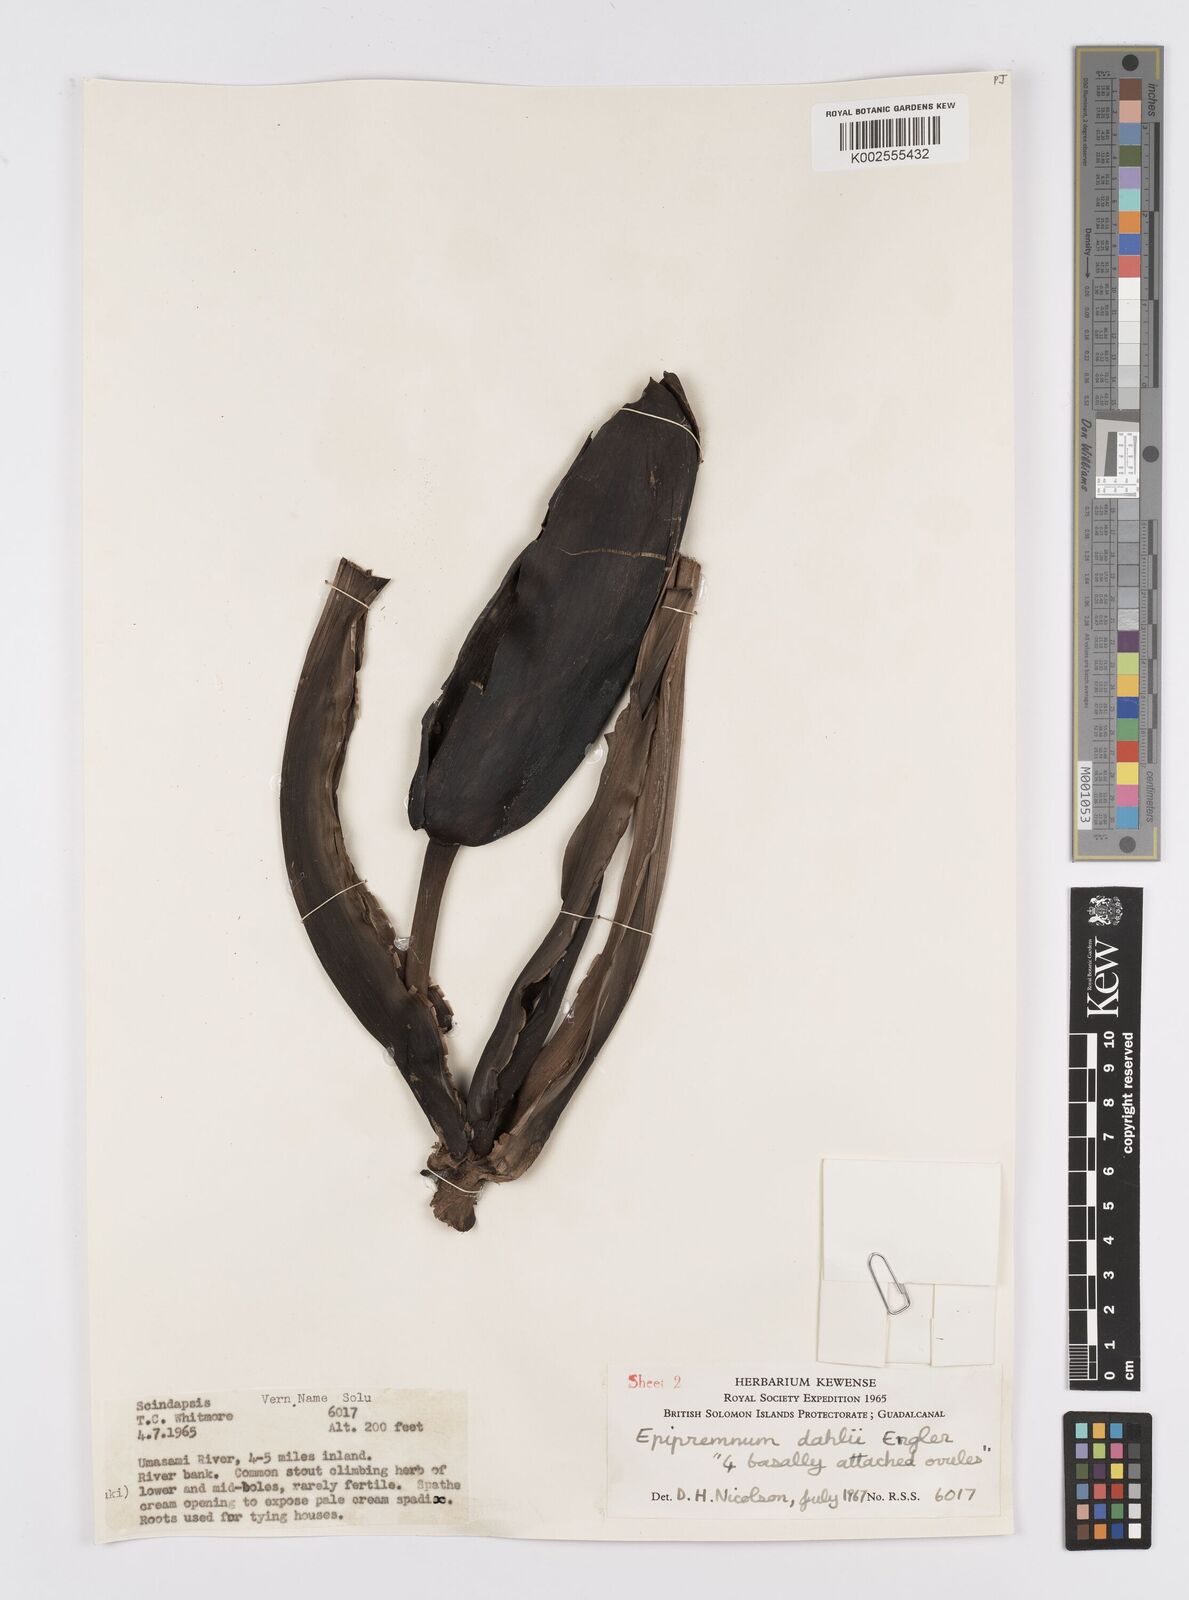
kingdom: Plantae
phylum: Tracheophyta
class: Liliopsida
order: Alismatales
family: Araceae
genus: Epipremnum
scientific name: Epipremnum dahlii
